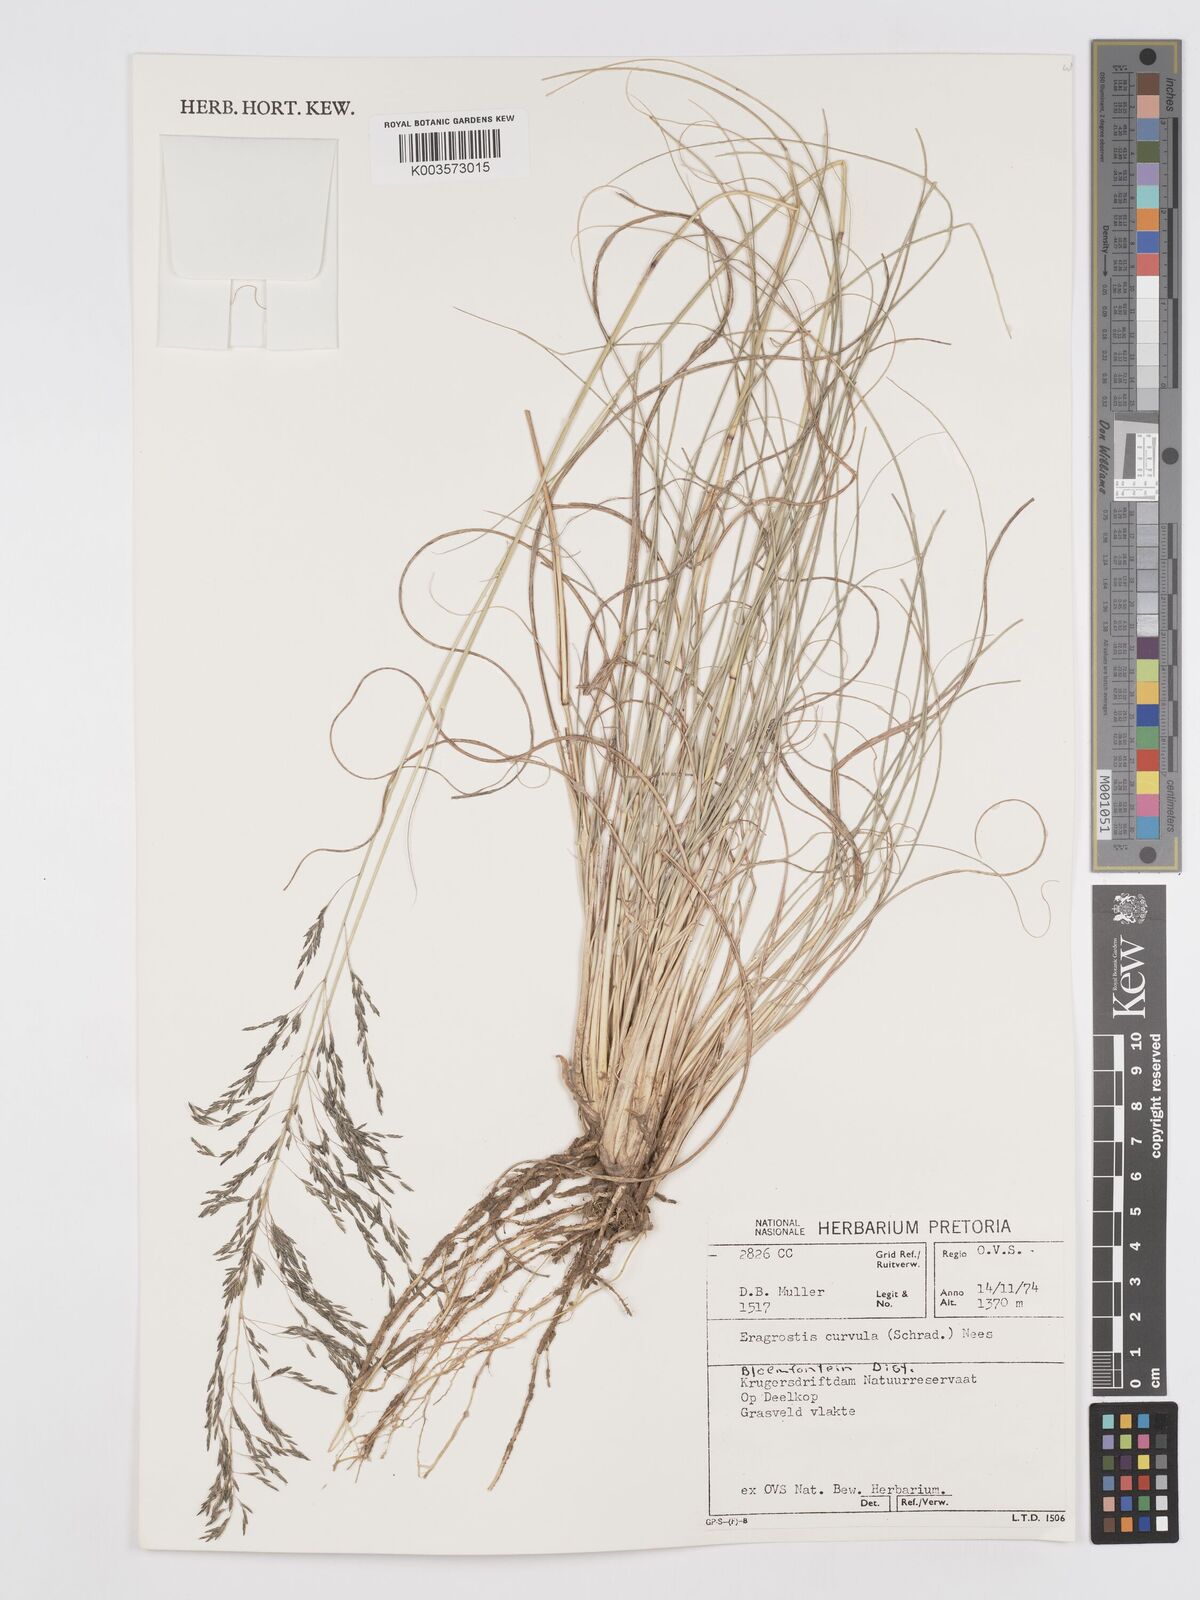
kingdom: Plantae
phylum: Tracheophyta
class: Liliopsida
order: Poales
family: Poaceae
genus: Eragrostis
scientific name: Eragrostis curvula
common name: African love-grass
